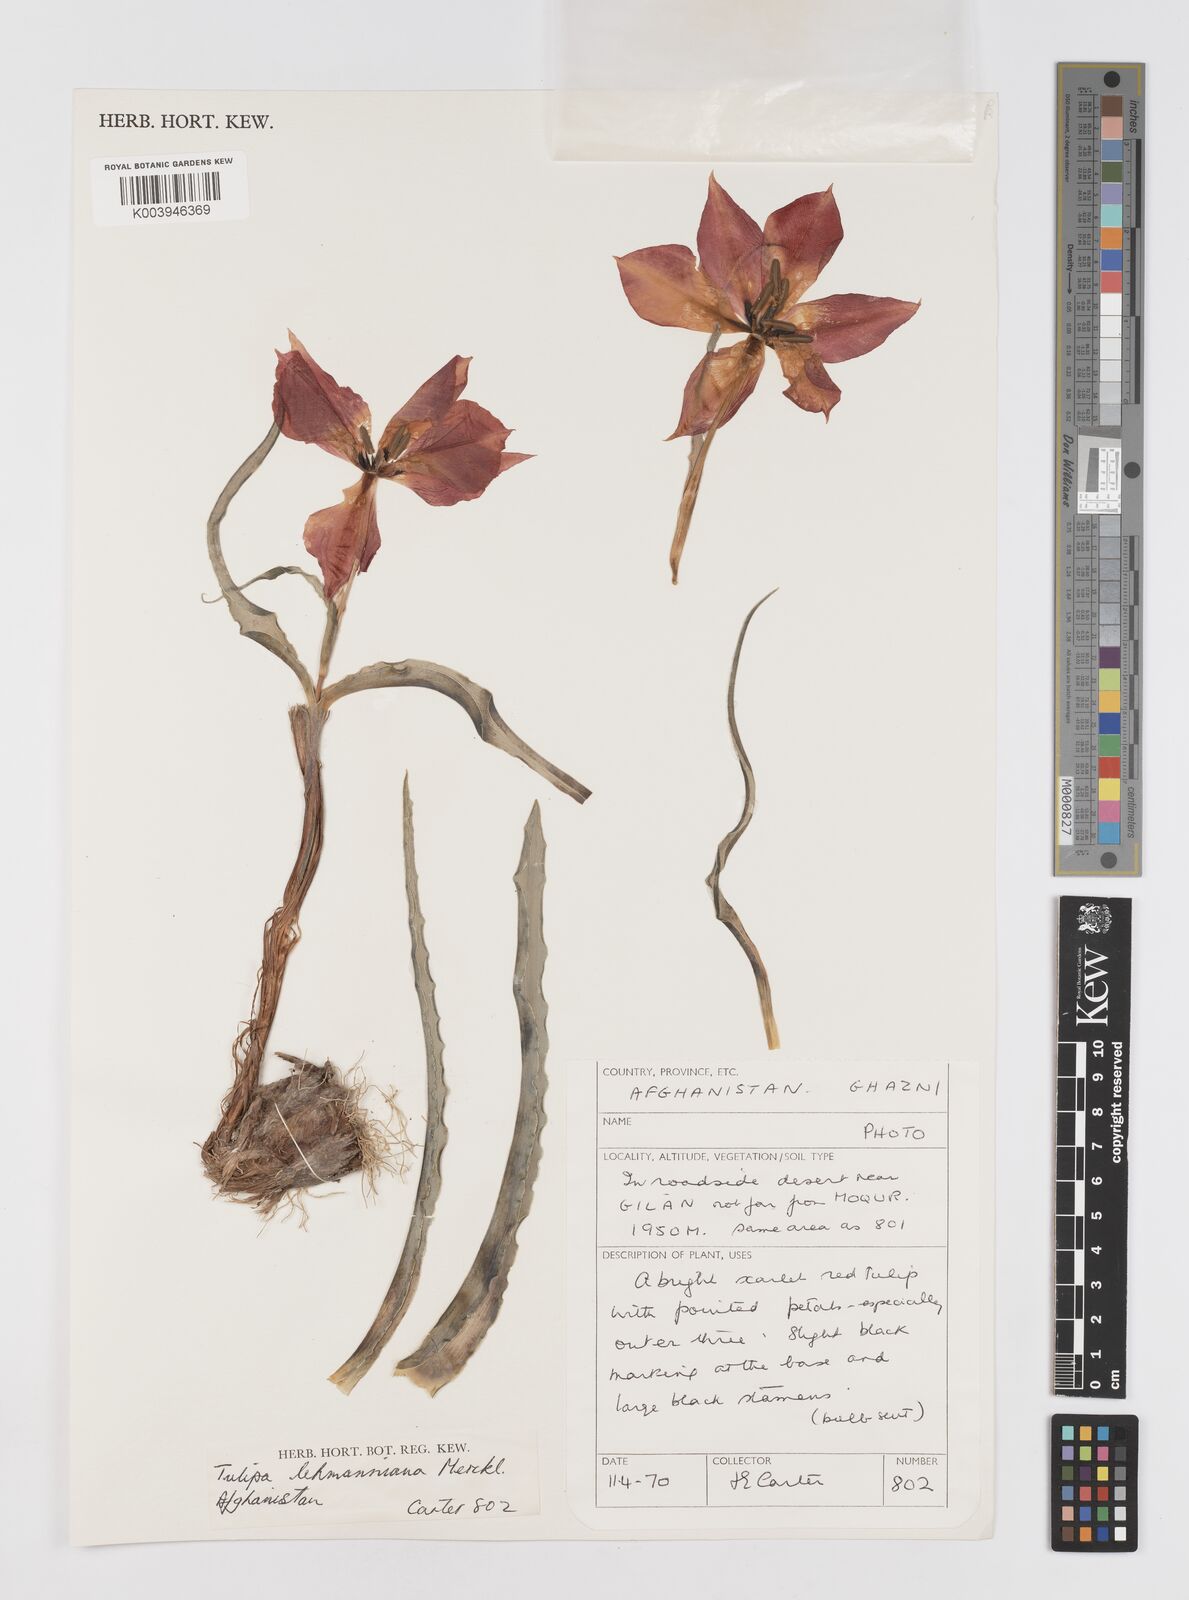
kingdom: Plantae
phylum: Tracheophyta
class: Liliopsida
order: Liliales
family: Liliaceae
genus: Tulipa
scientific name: Tulipa lehmanniana
